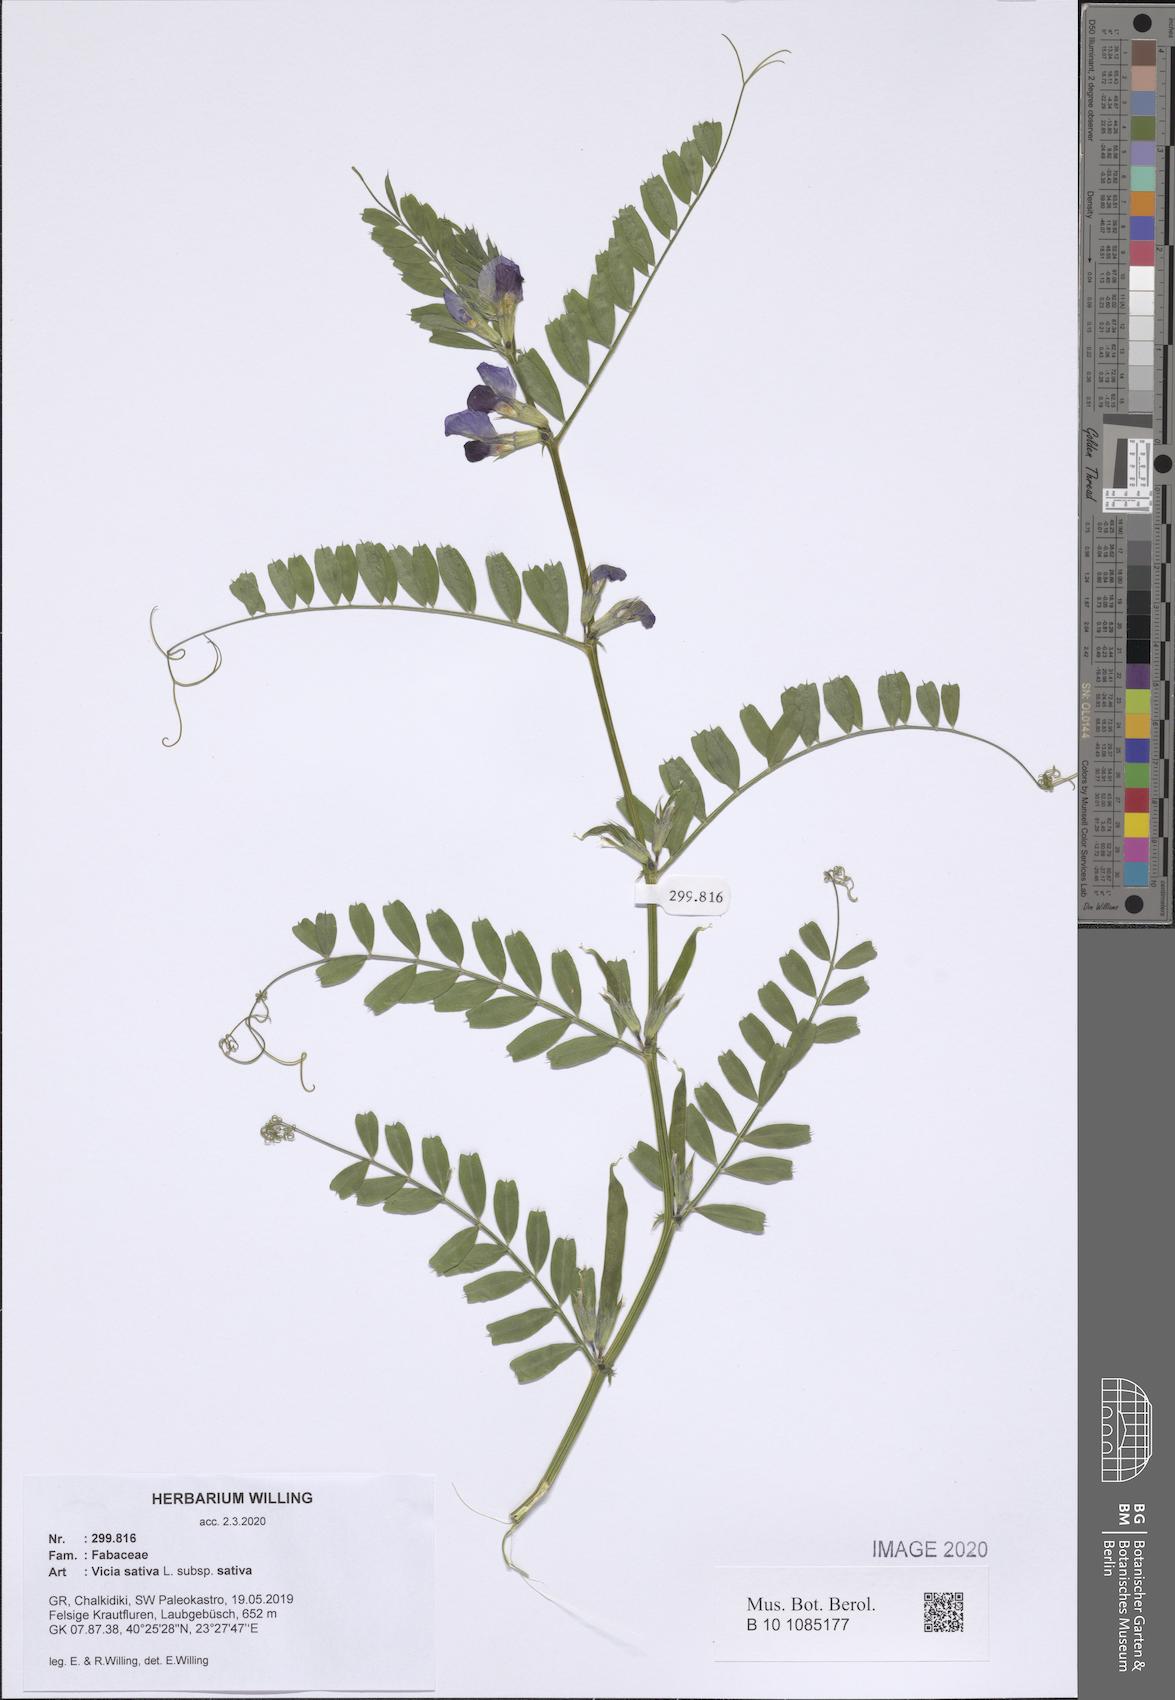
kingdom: Plantae
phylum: Tracheophyta
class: Magnoliopsida
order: Fabales
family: Fabaceae
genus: Vicia
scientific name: Vicia sativa
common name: Garden vetch
